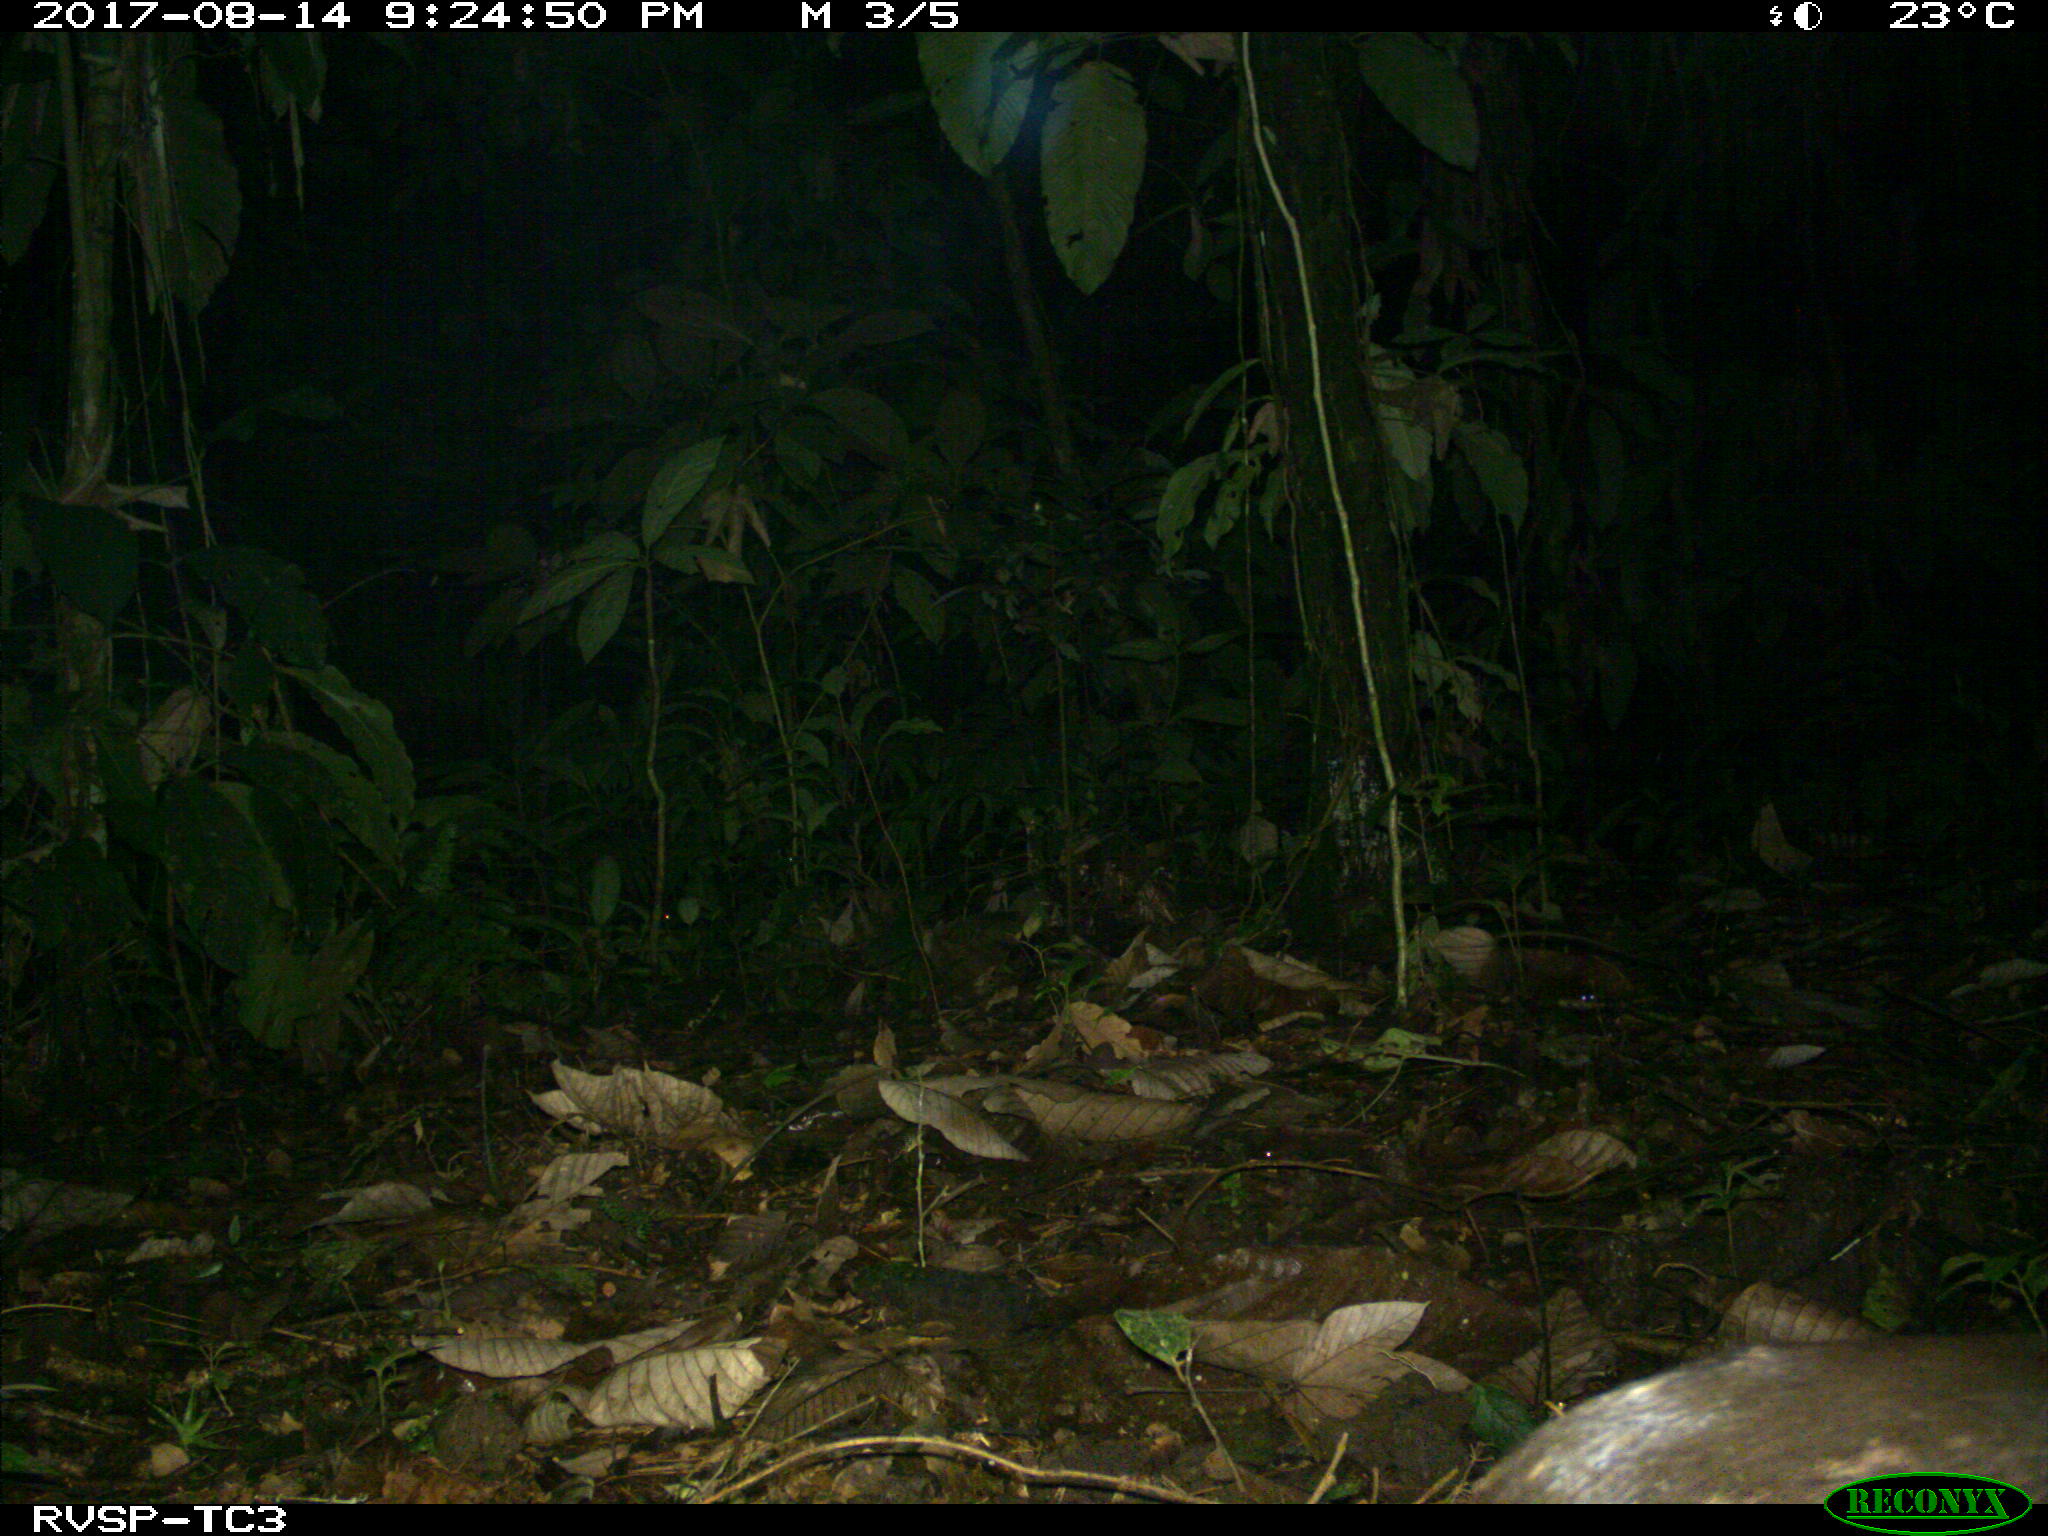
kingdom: Animalia
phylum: Chordata
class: Mammalia
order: Rodentia
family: Cuniculidae
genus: Cuniculus
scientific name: Cuniculus paca
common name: Lowland paca
